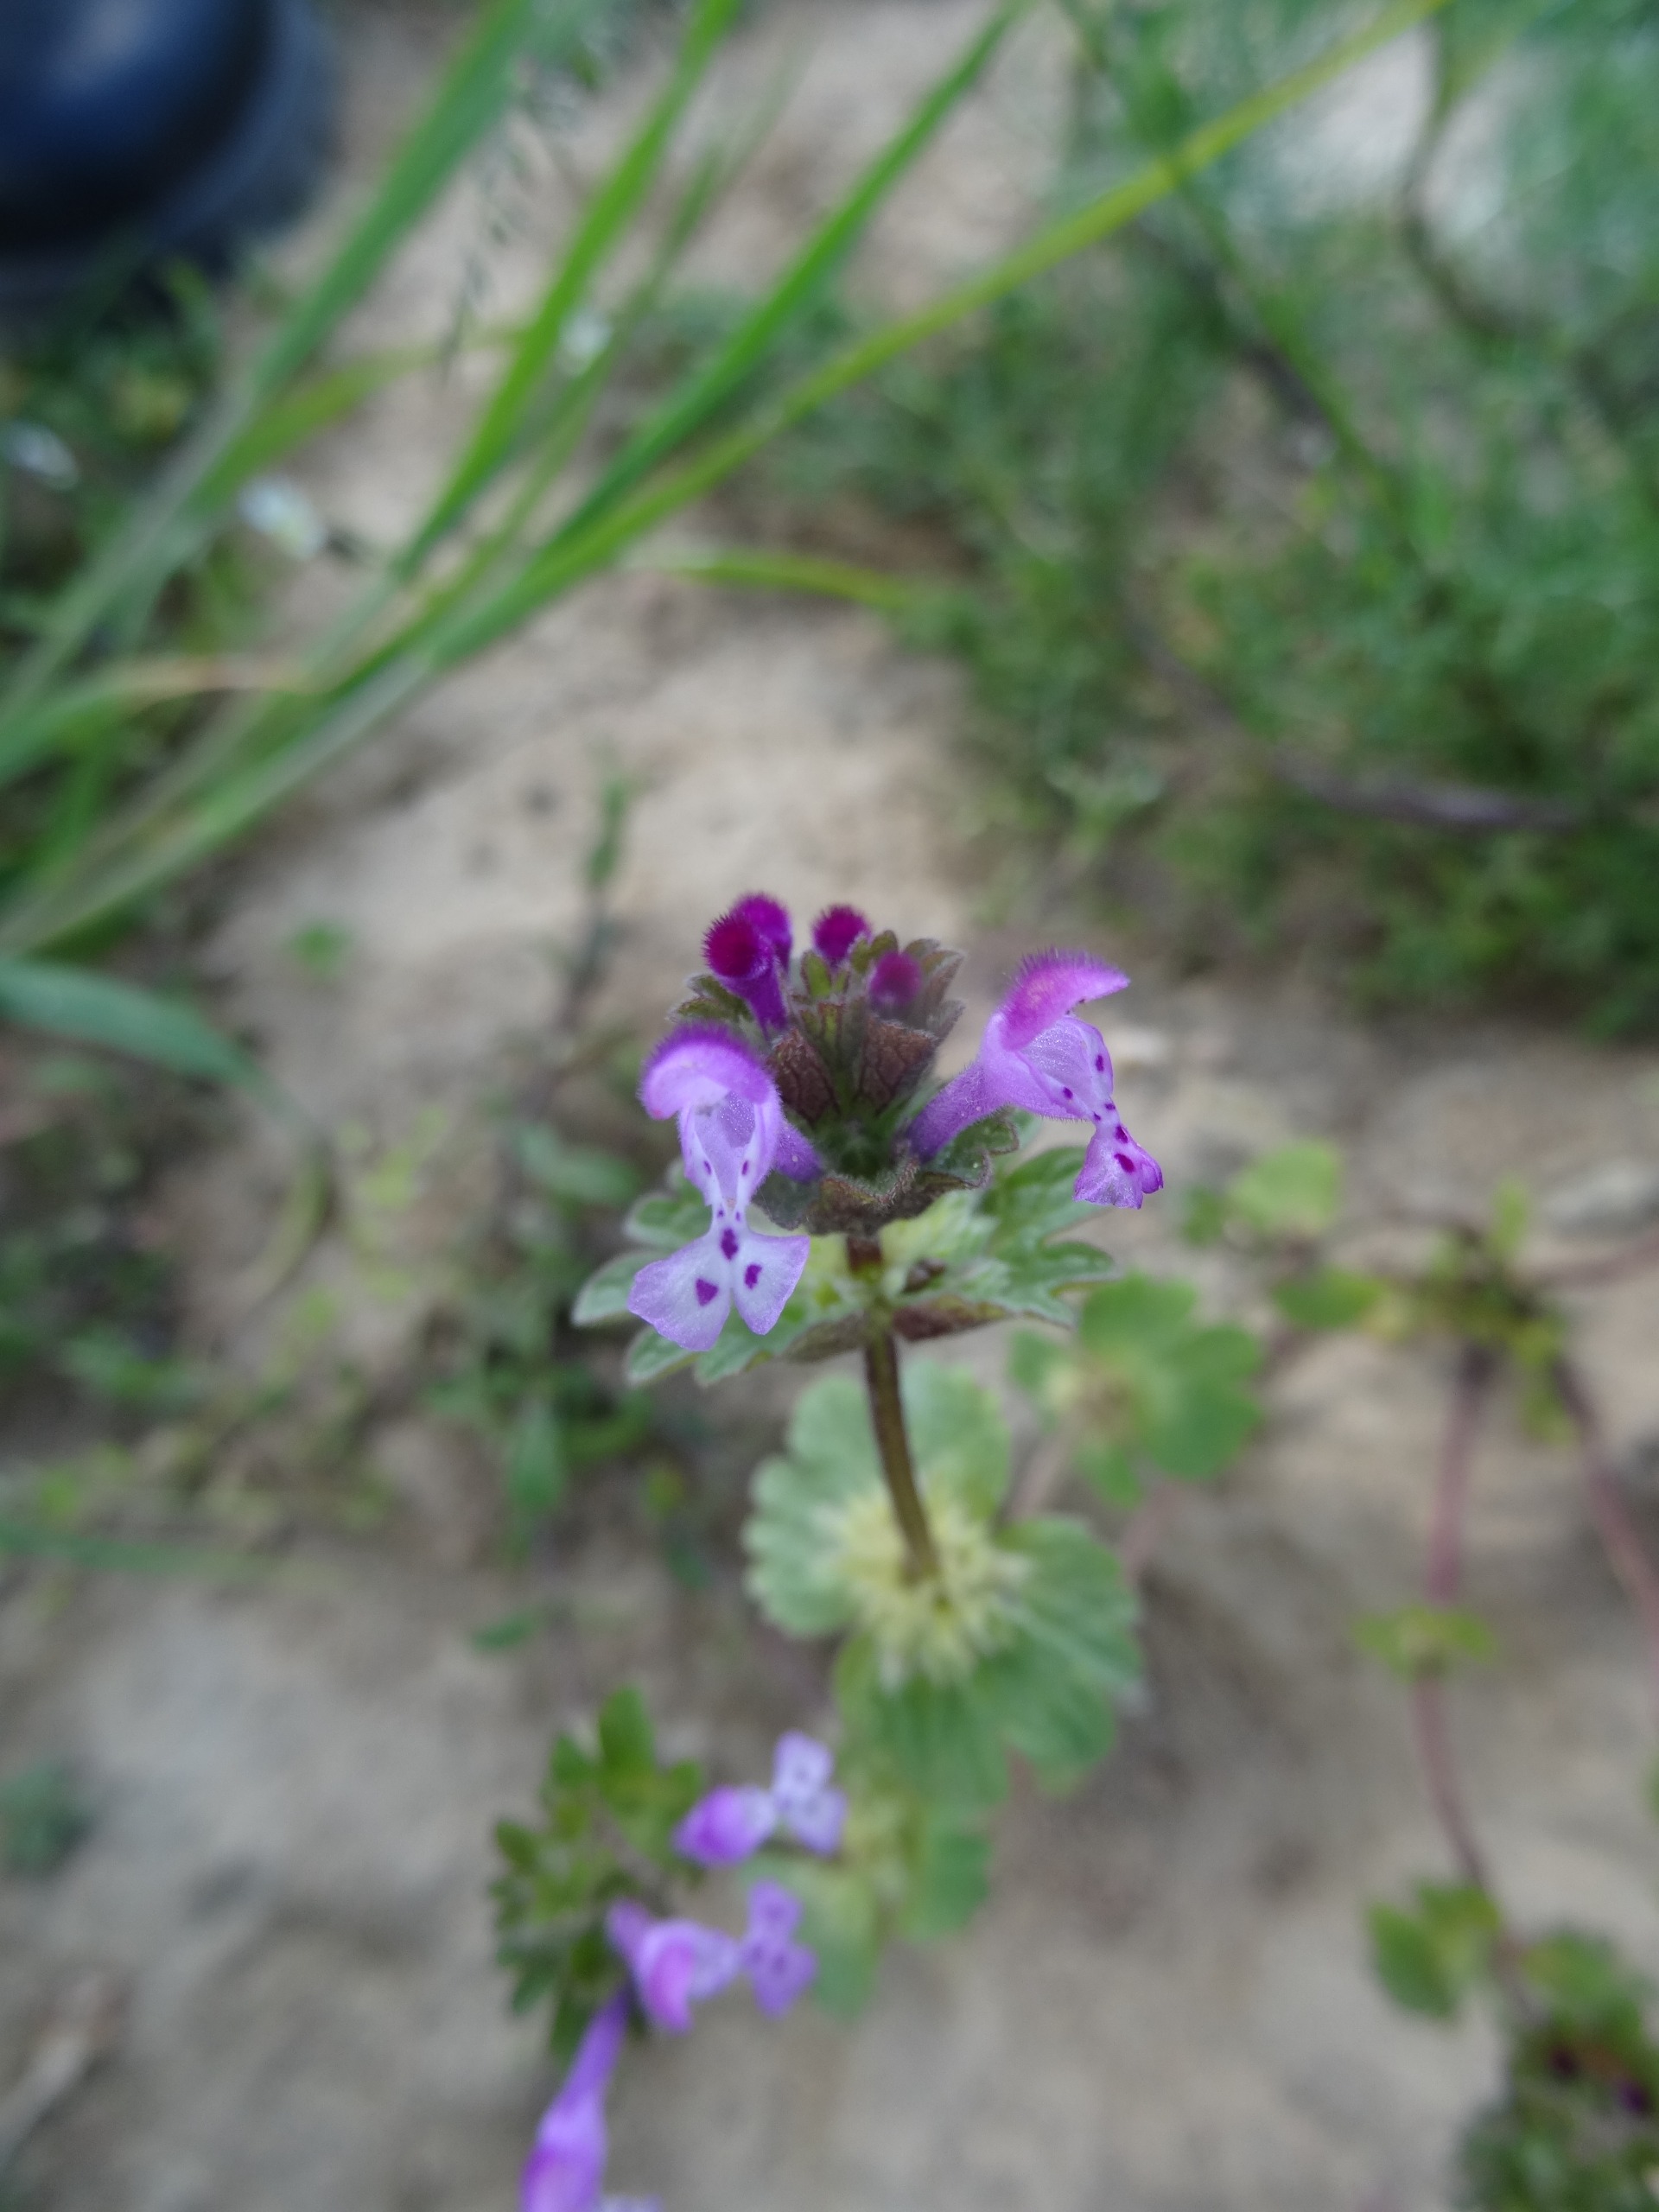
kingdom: Plantae
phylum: Tracheophyta
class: Magnoliopsida
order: Lamiales
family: Lamiaceae
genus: Lamium
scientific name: Lamium amplexicaule
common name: Liden tvetand
